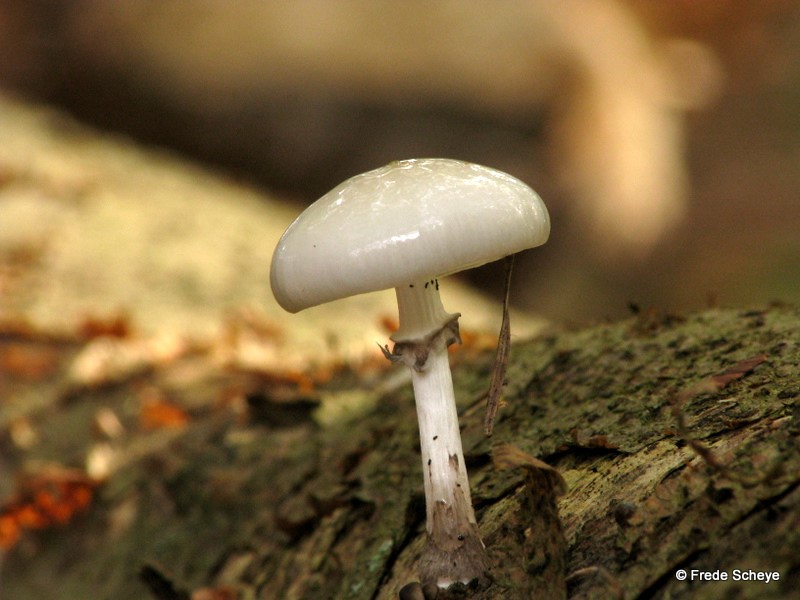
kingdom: Fungi
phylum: Basidiomycota
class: Agaricomycetes
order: Agaricales
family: Physalacriaceae
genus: Mucidula
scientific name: Mucidula mucida
